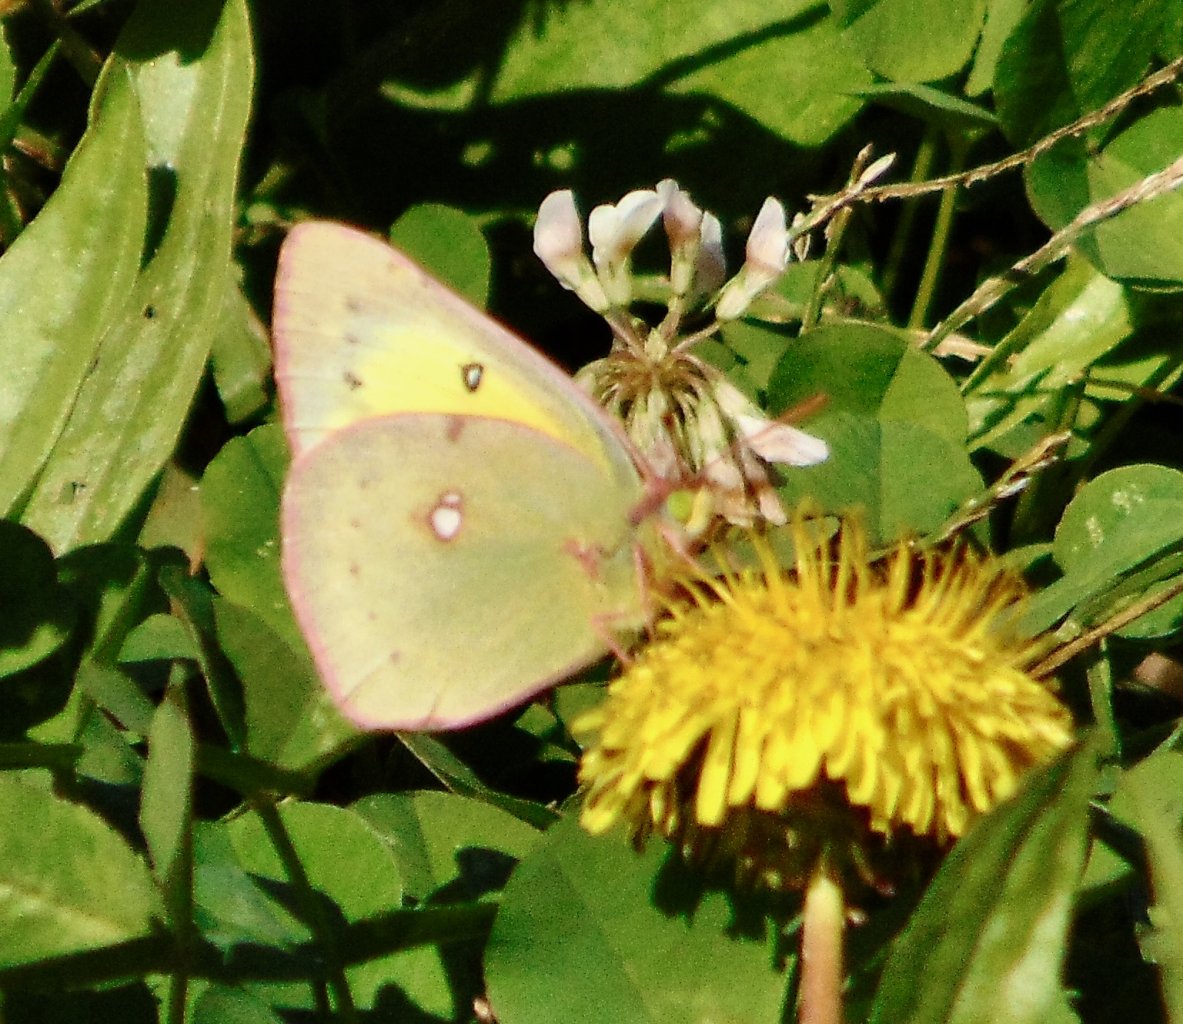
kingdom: Animalia
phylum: Arthropoda
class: Insecta
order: Lepidoptera
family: Pieridae
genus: Colias
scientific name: Colias philodice
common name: Clouded Sulphur
